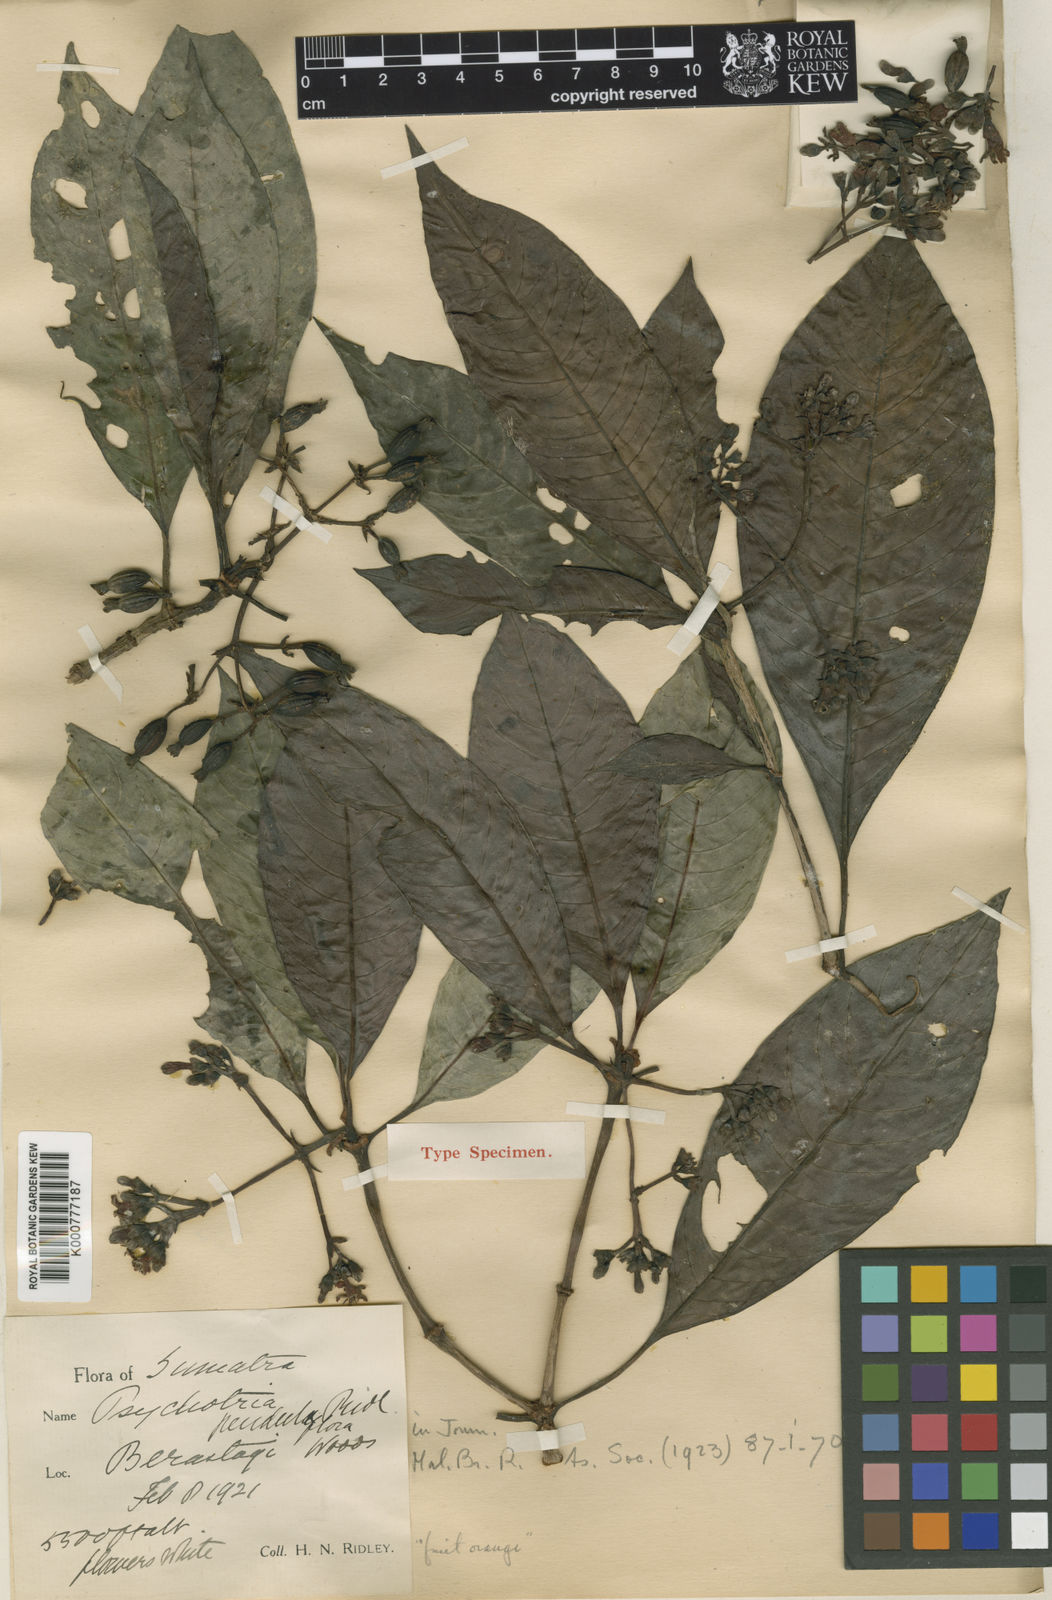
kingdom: Plantae
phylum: Tracheophyta
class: Magnoliopsida
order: Gentianales
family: Rubiaceae
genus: Psychotria
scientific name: Psychotria penduliflora
